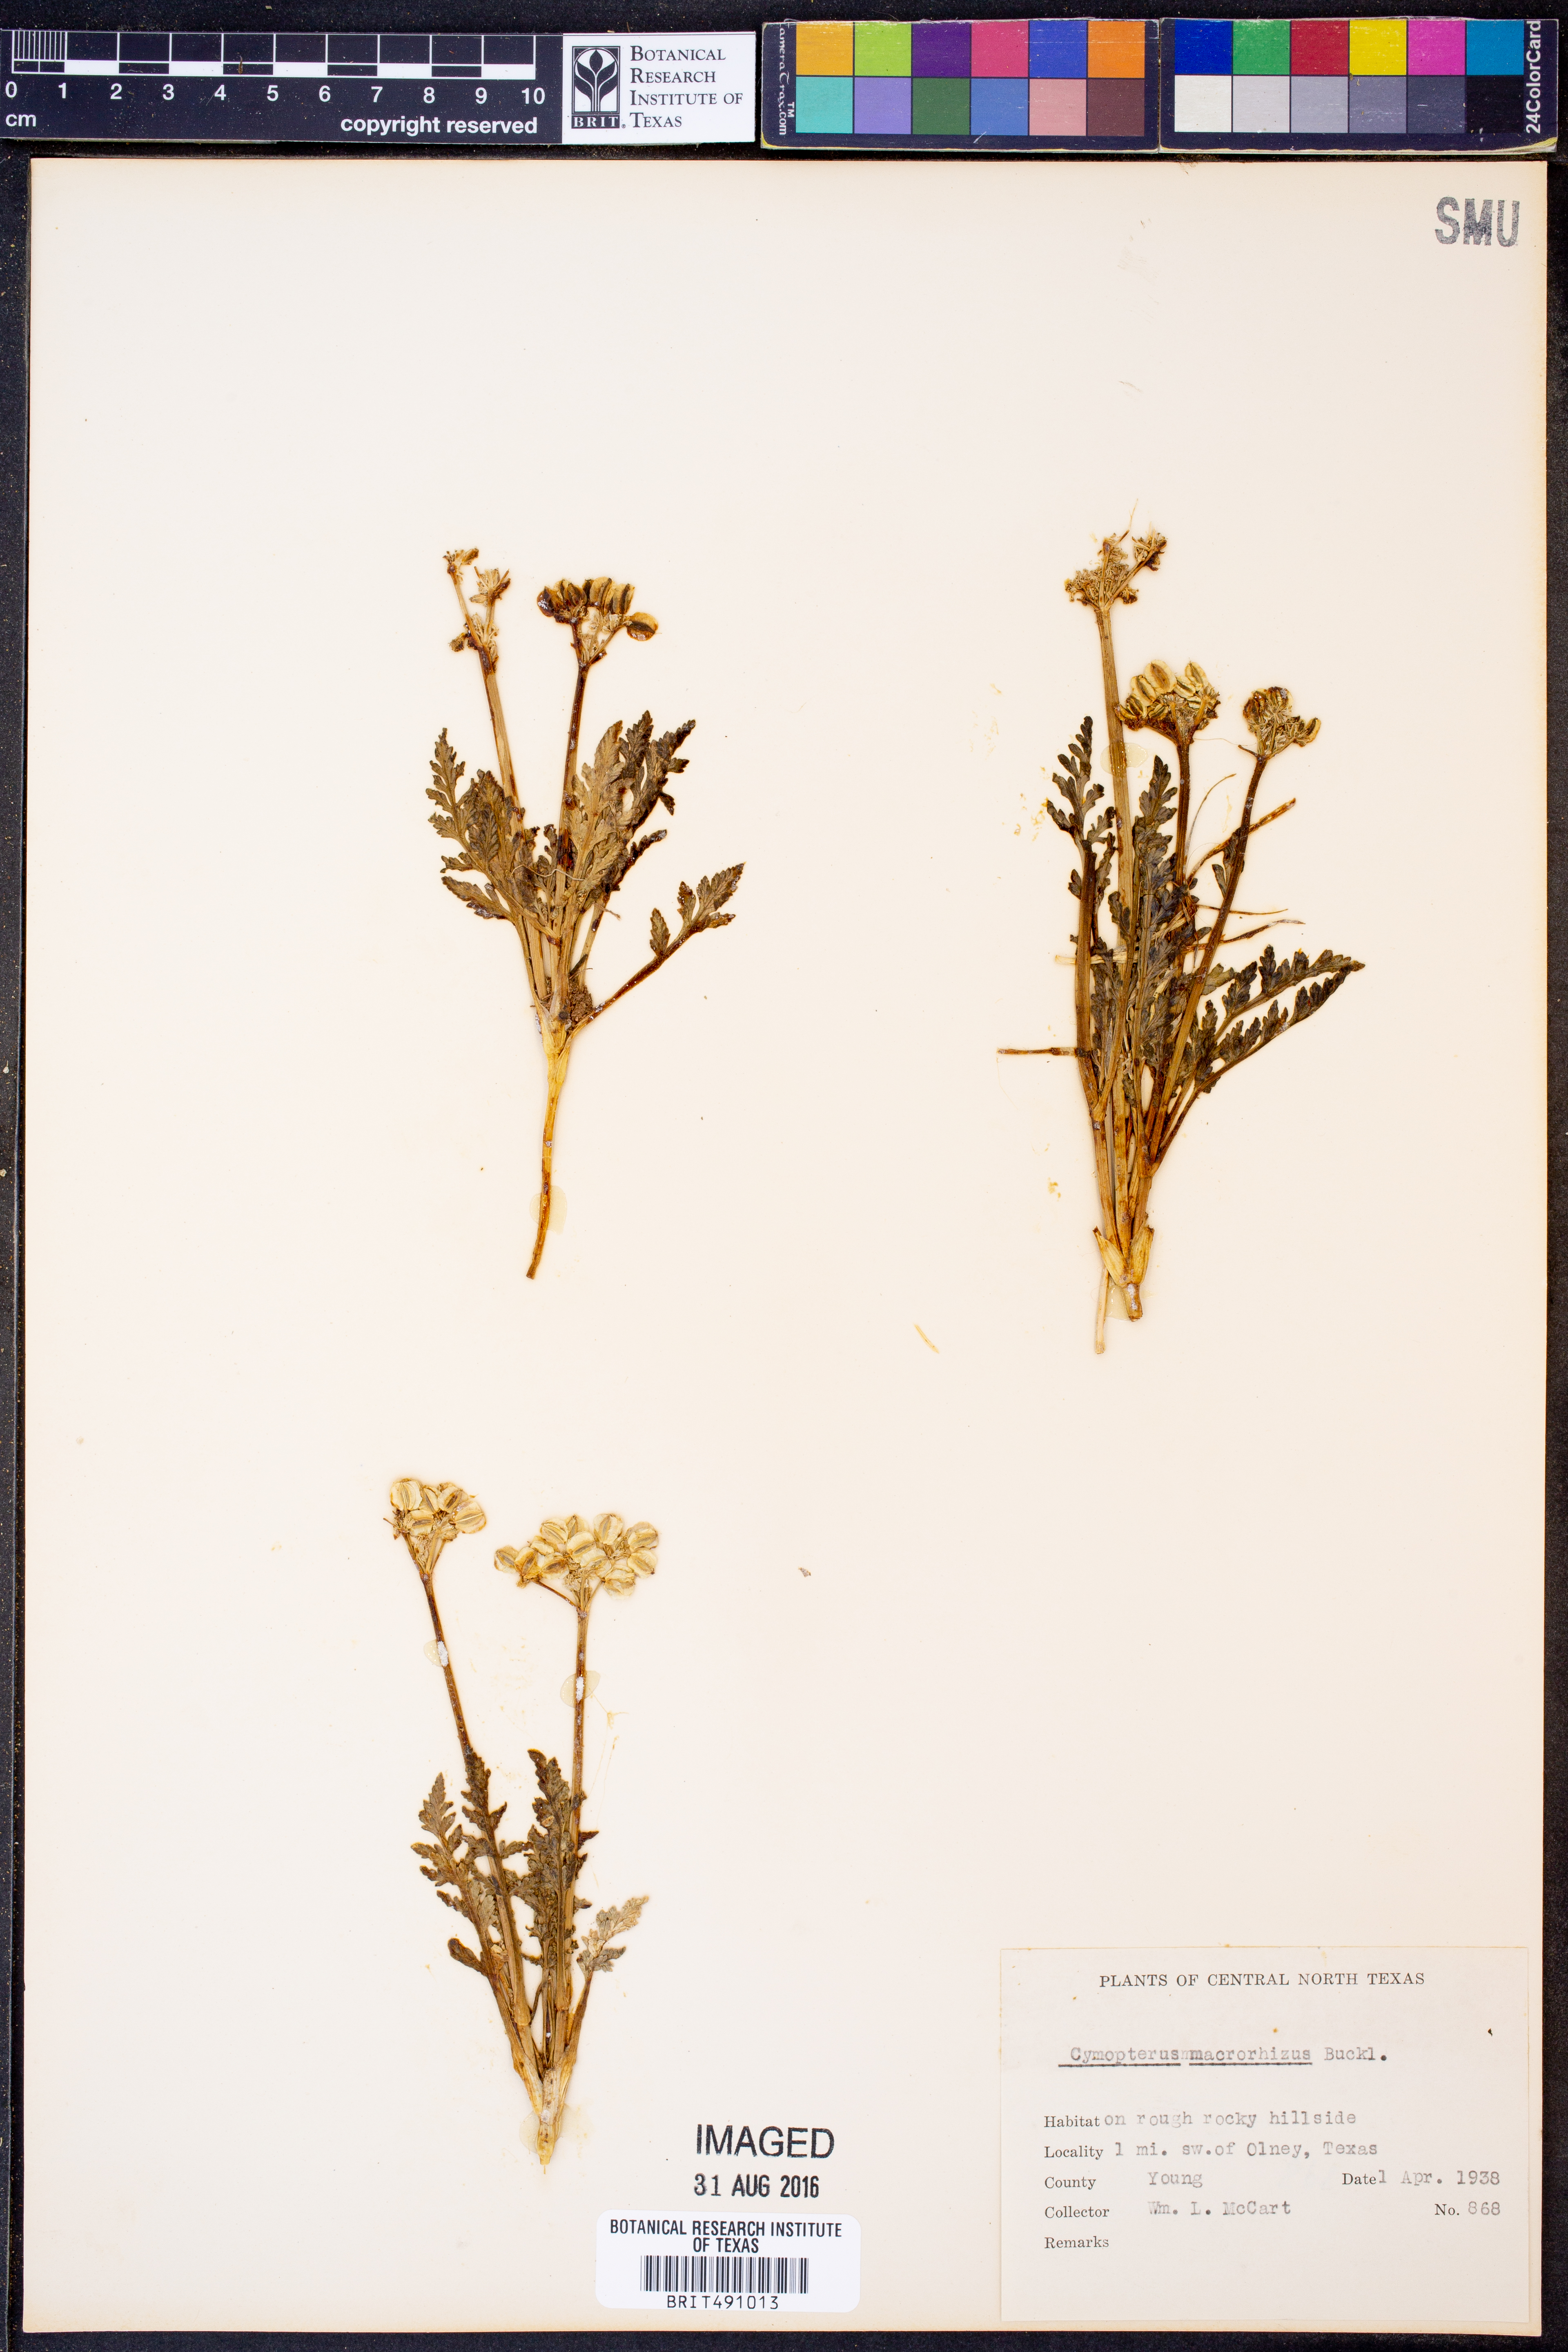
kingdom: Plantae
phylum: Tracheophyta
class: Magnoliopsida
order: Apiales
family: Apiaceae
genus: Vesper
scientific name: Vesper macrorhizus
